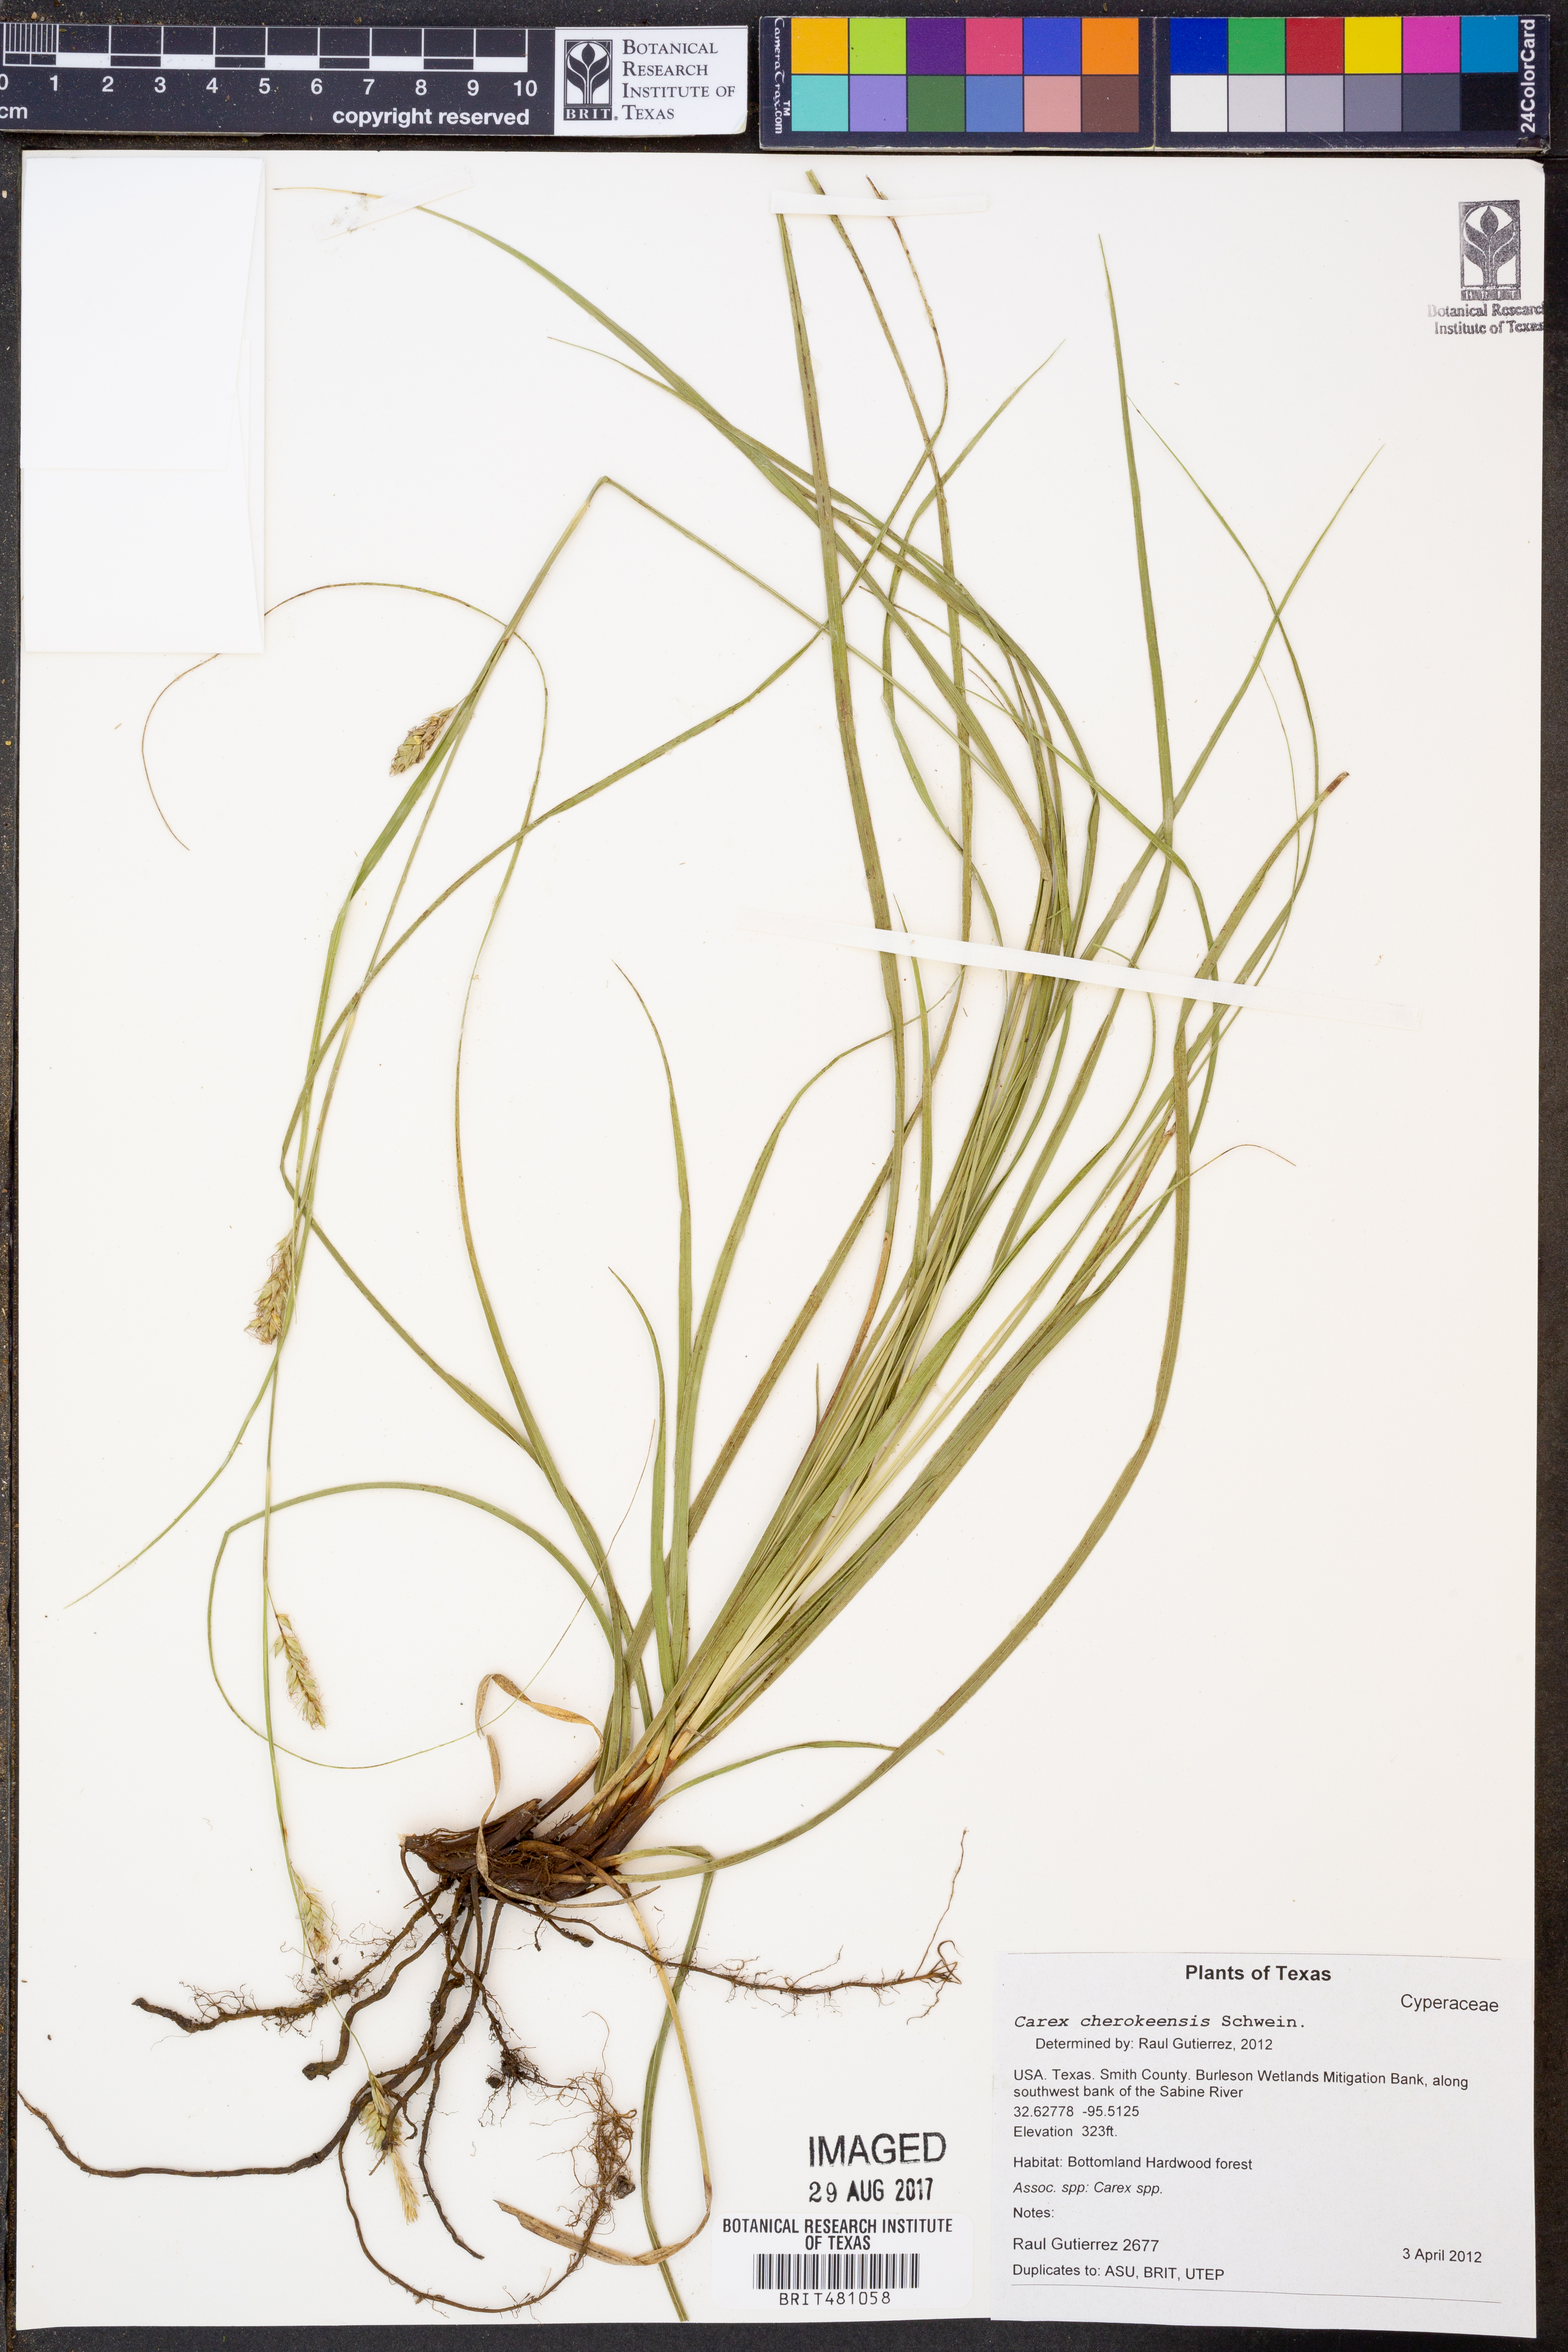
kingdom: Plantae
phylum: Tracheophyta
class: Liliopsida
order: Poales
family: Cyperaceae
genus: Carex
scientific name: Carex cherokeensis
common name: Cherokee sedge
